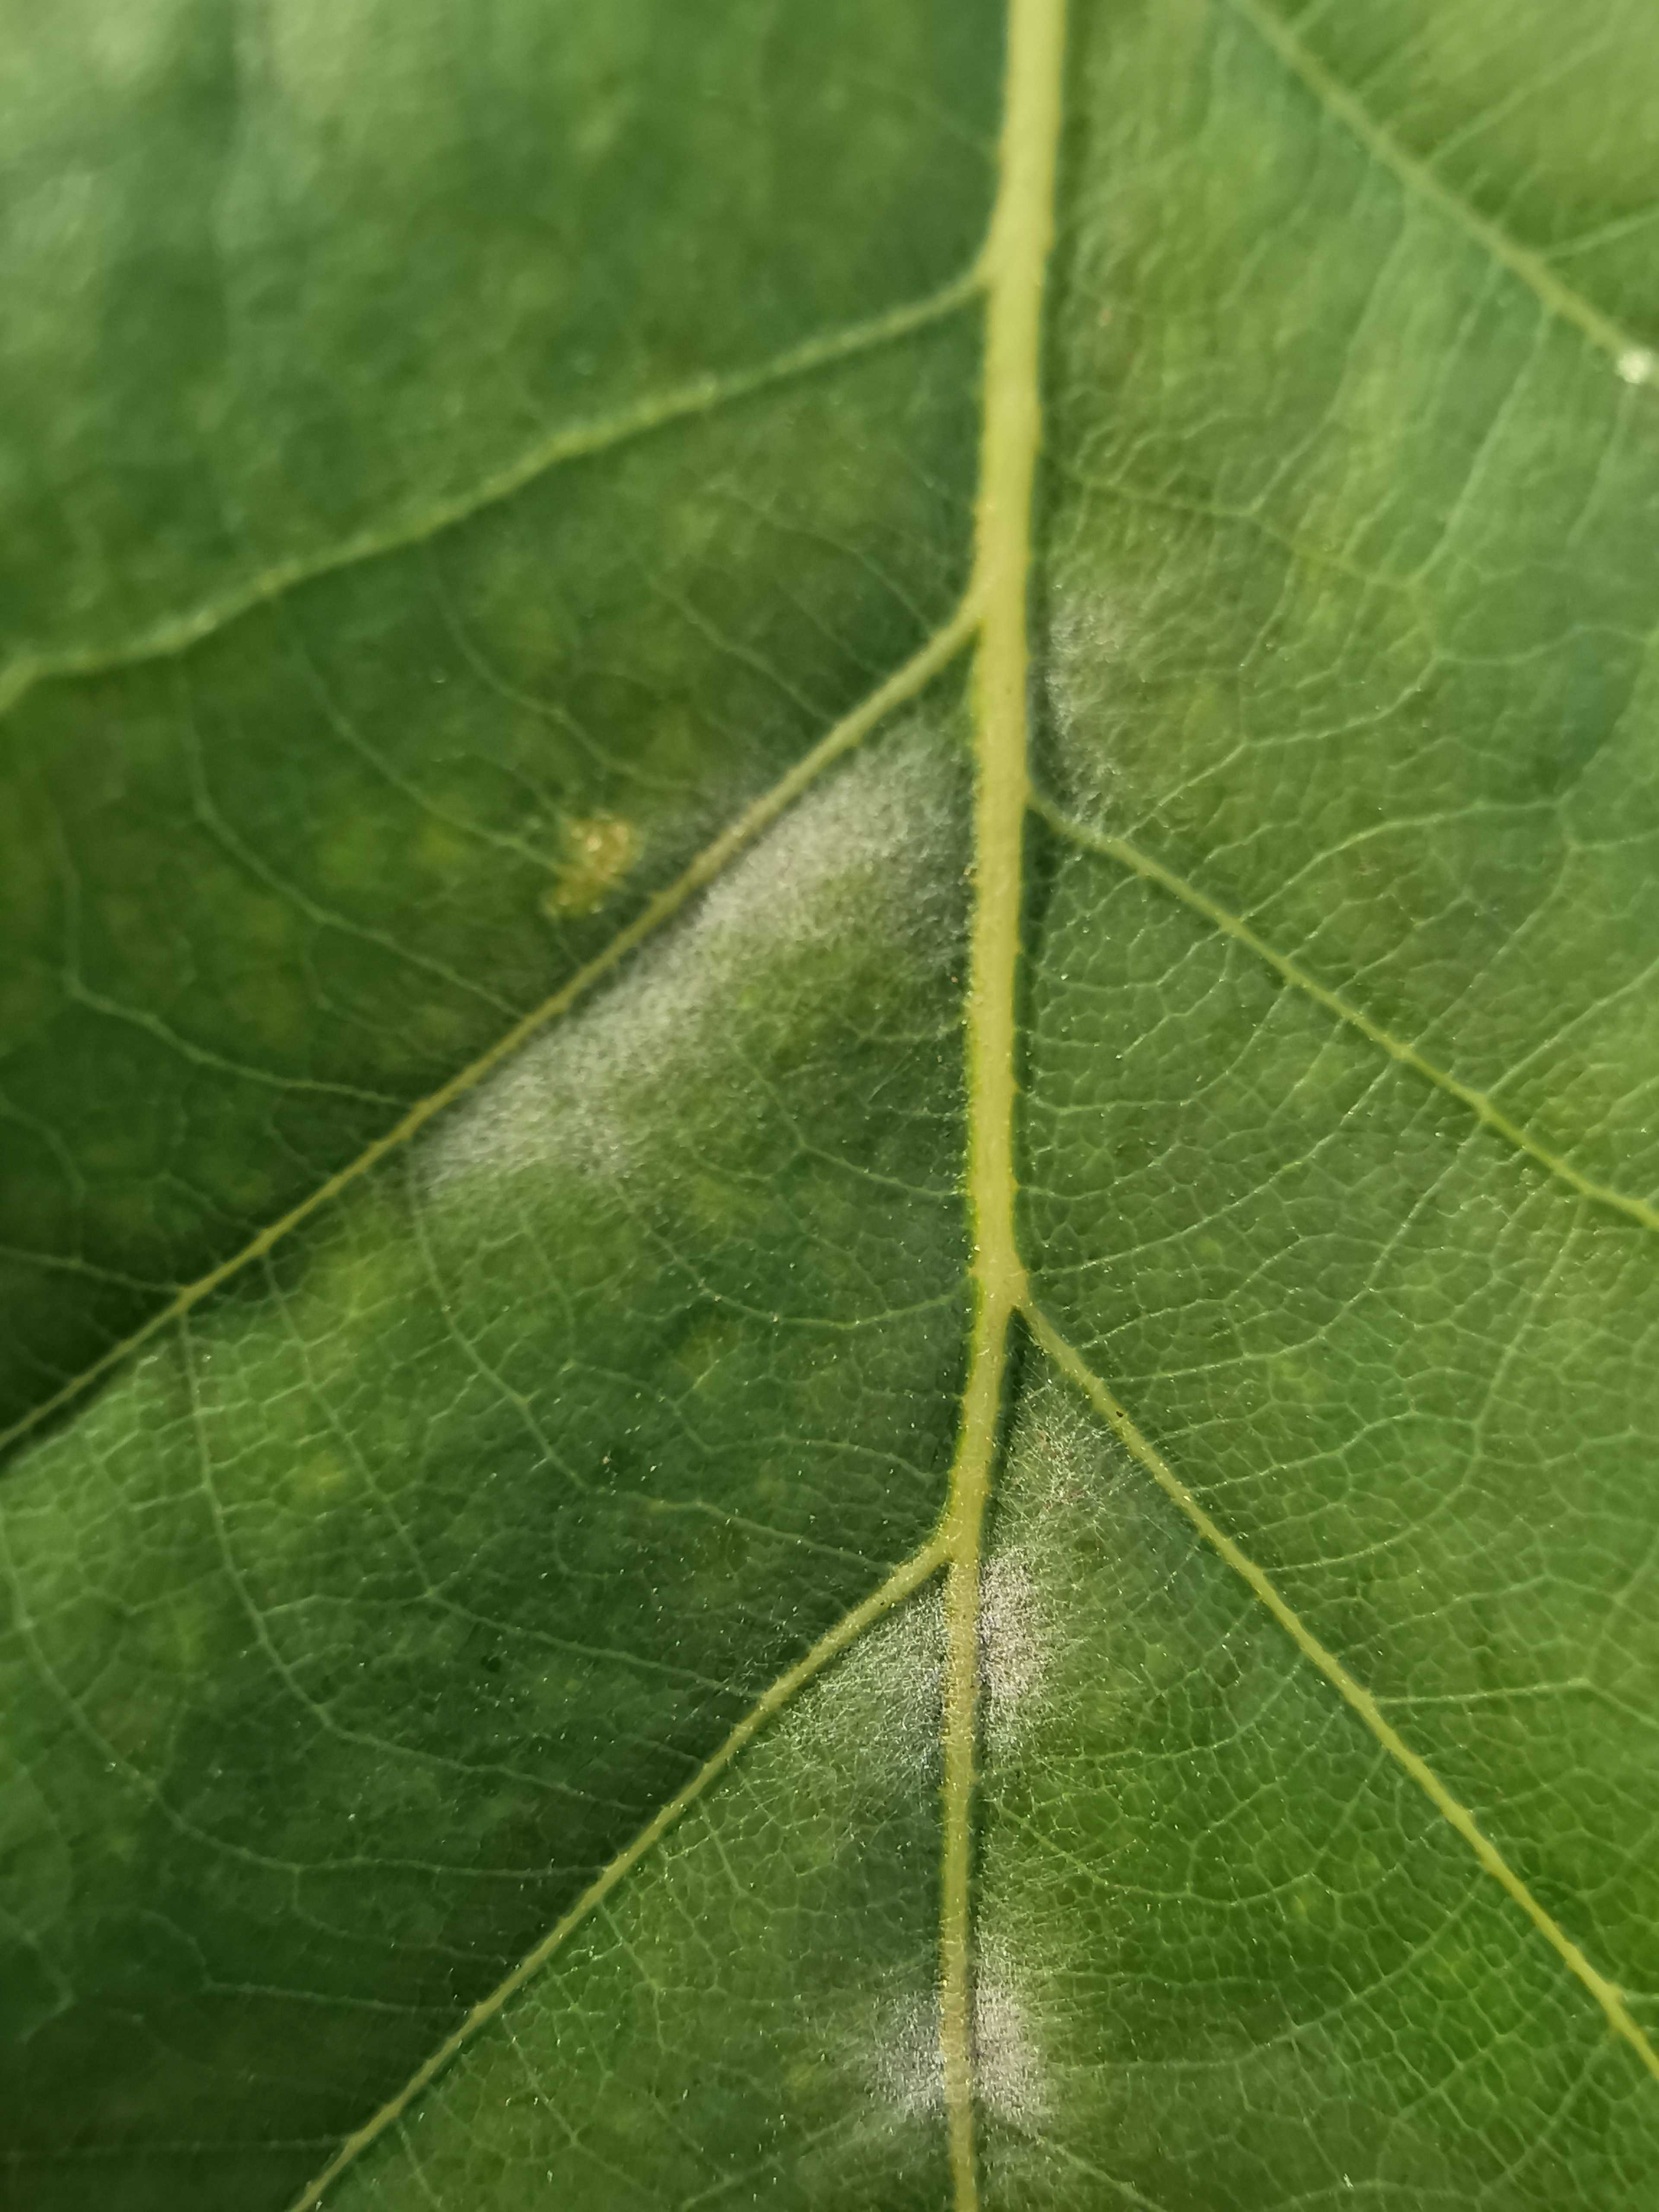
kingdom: Fungi
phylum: Ascomycota
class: Leotiomycetes
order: Helotiales
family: Erysiphaceae
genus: Erysiphe
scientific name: Erysiphe alphitoides
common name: ege-meldug
